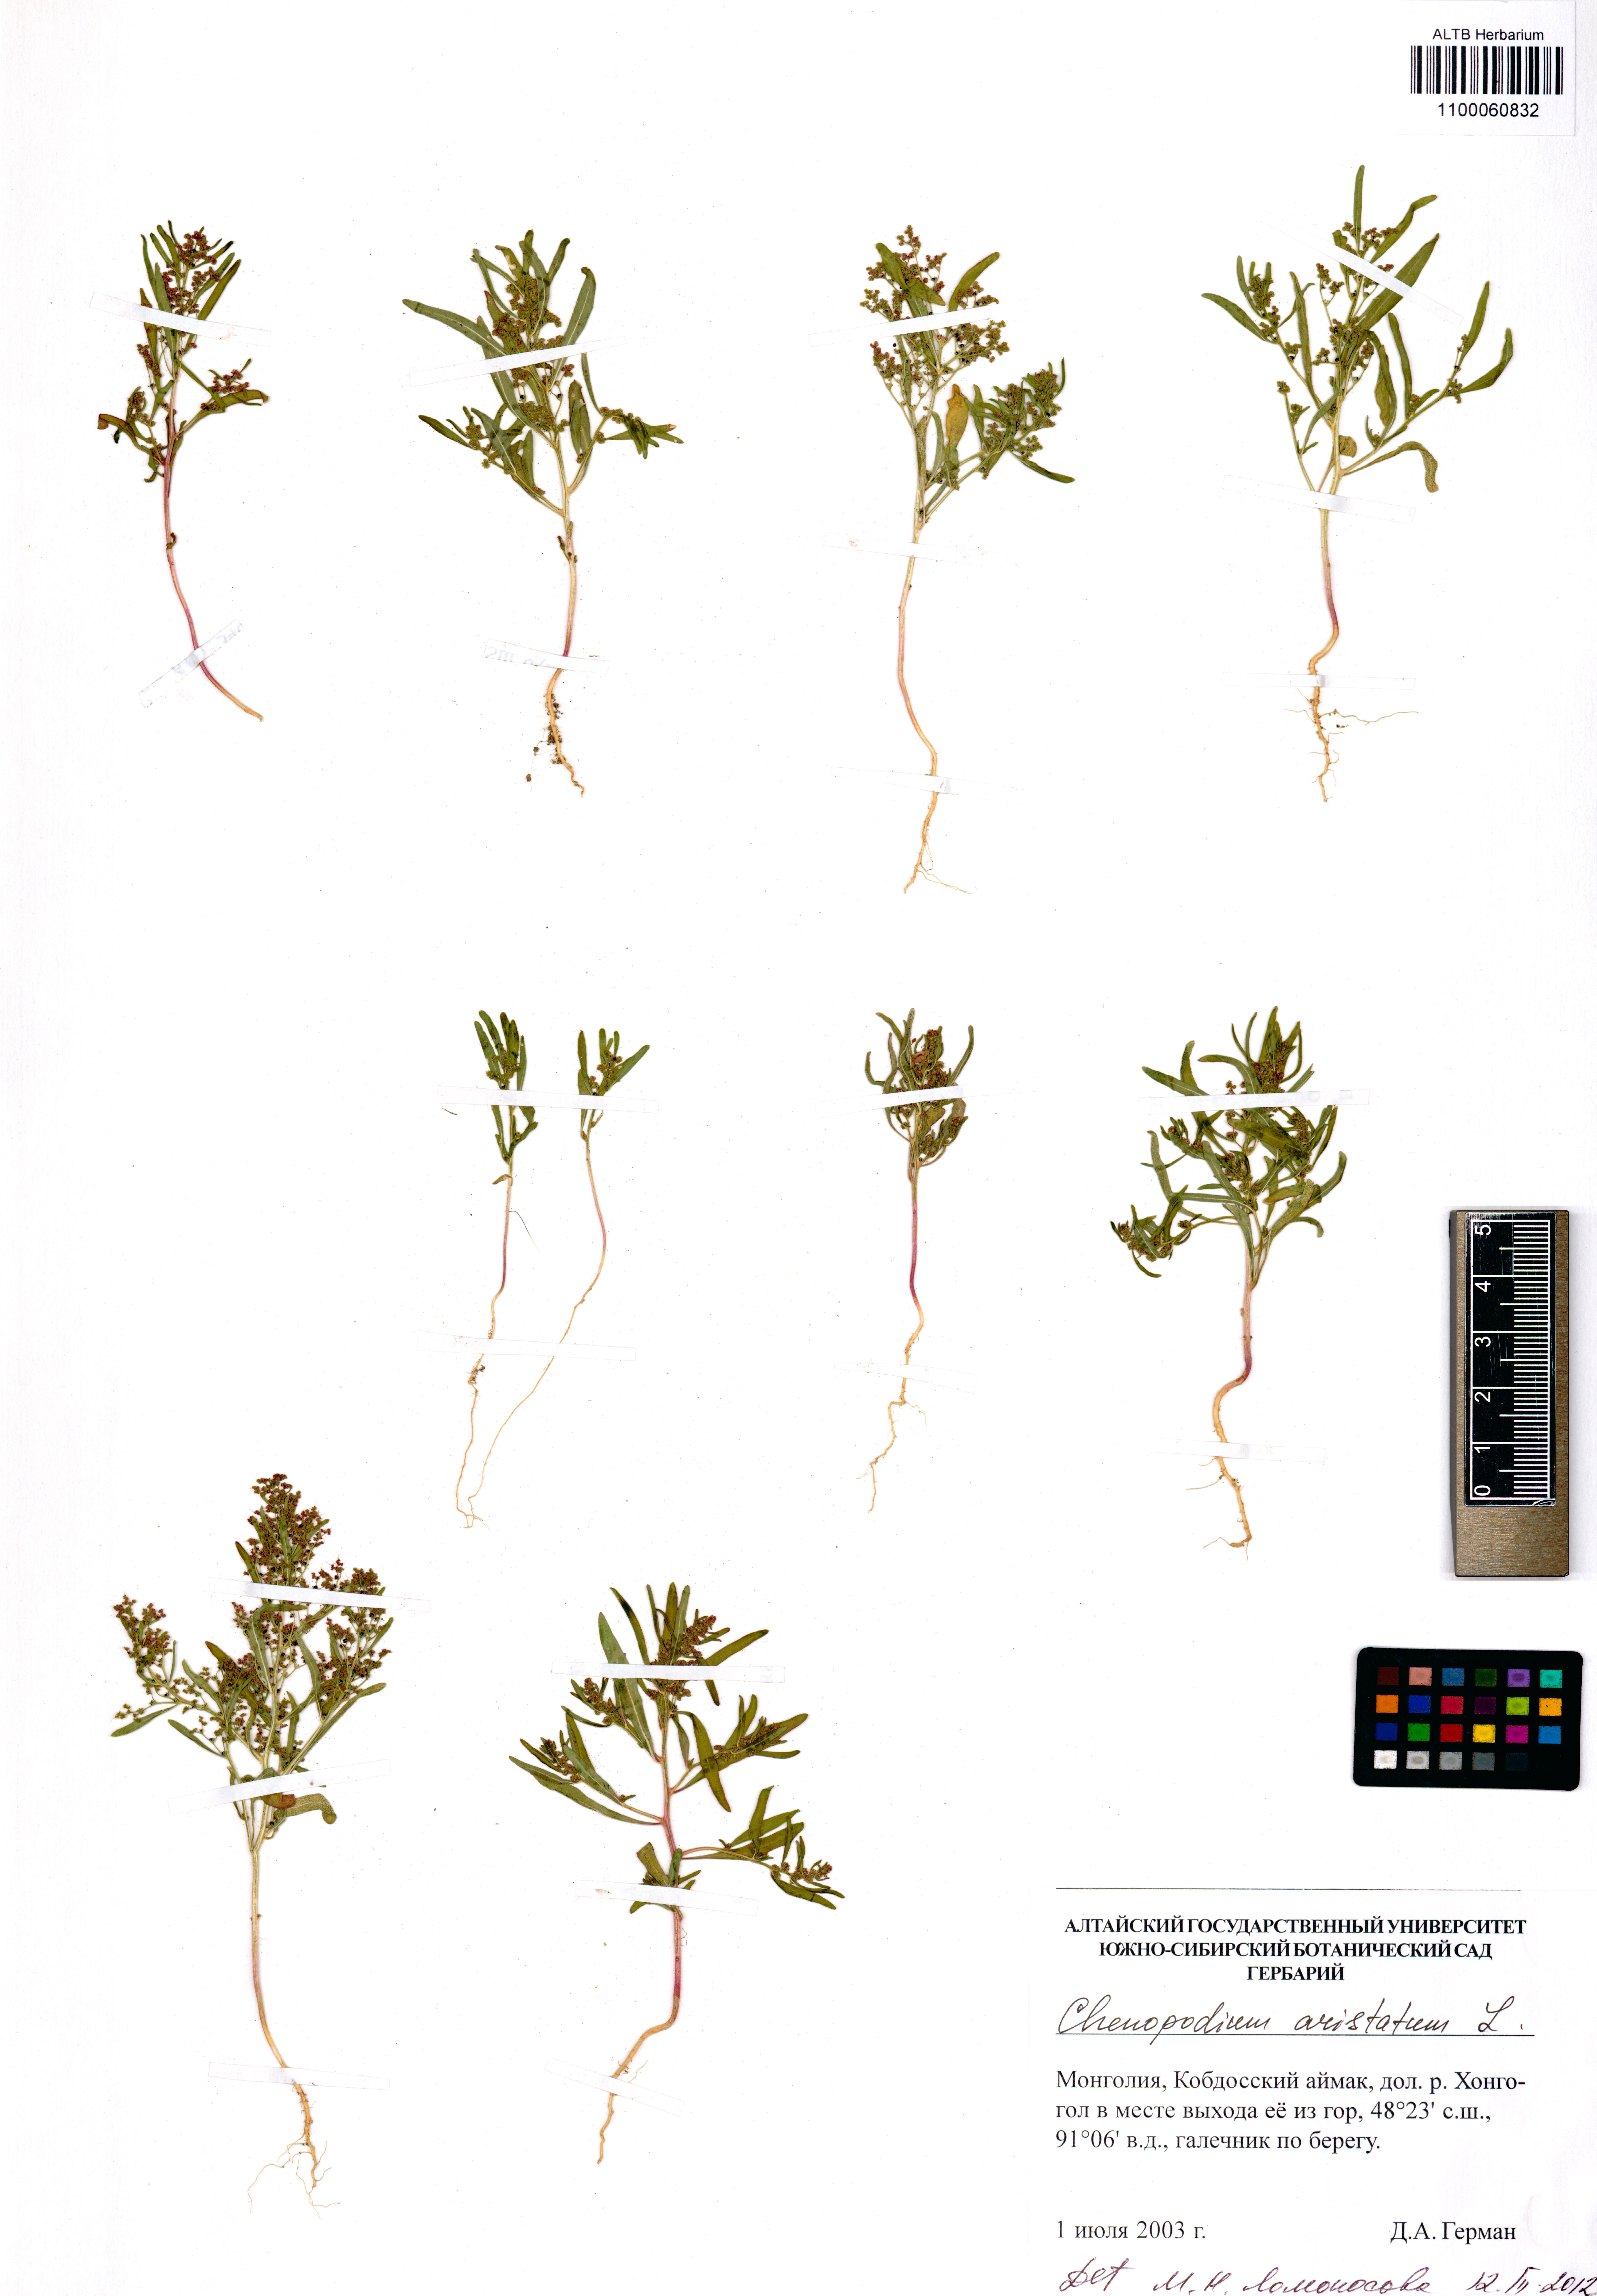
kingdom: Plantae
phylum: Tracheophyta
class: Magnoliopsida
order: Caryophyllales
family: Amaranthaceae
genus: Teloxys
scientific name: Teloxys aristata
